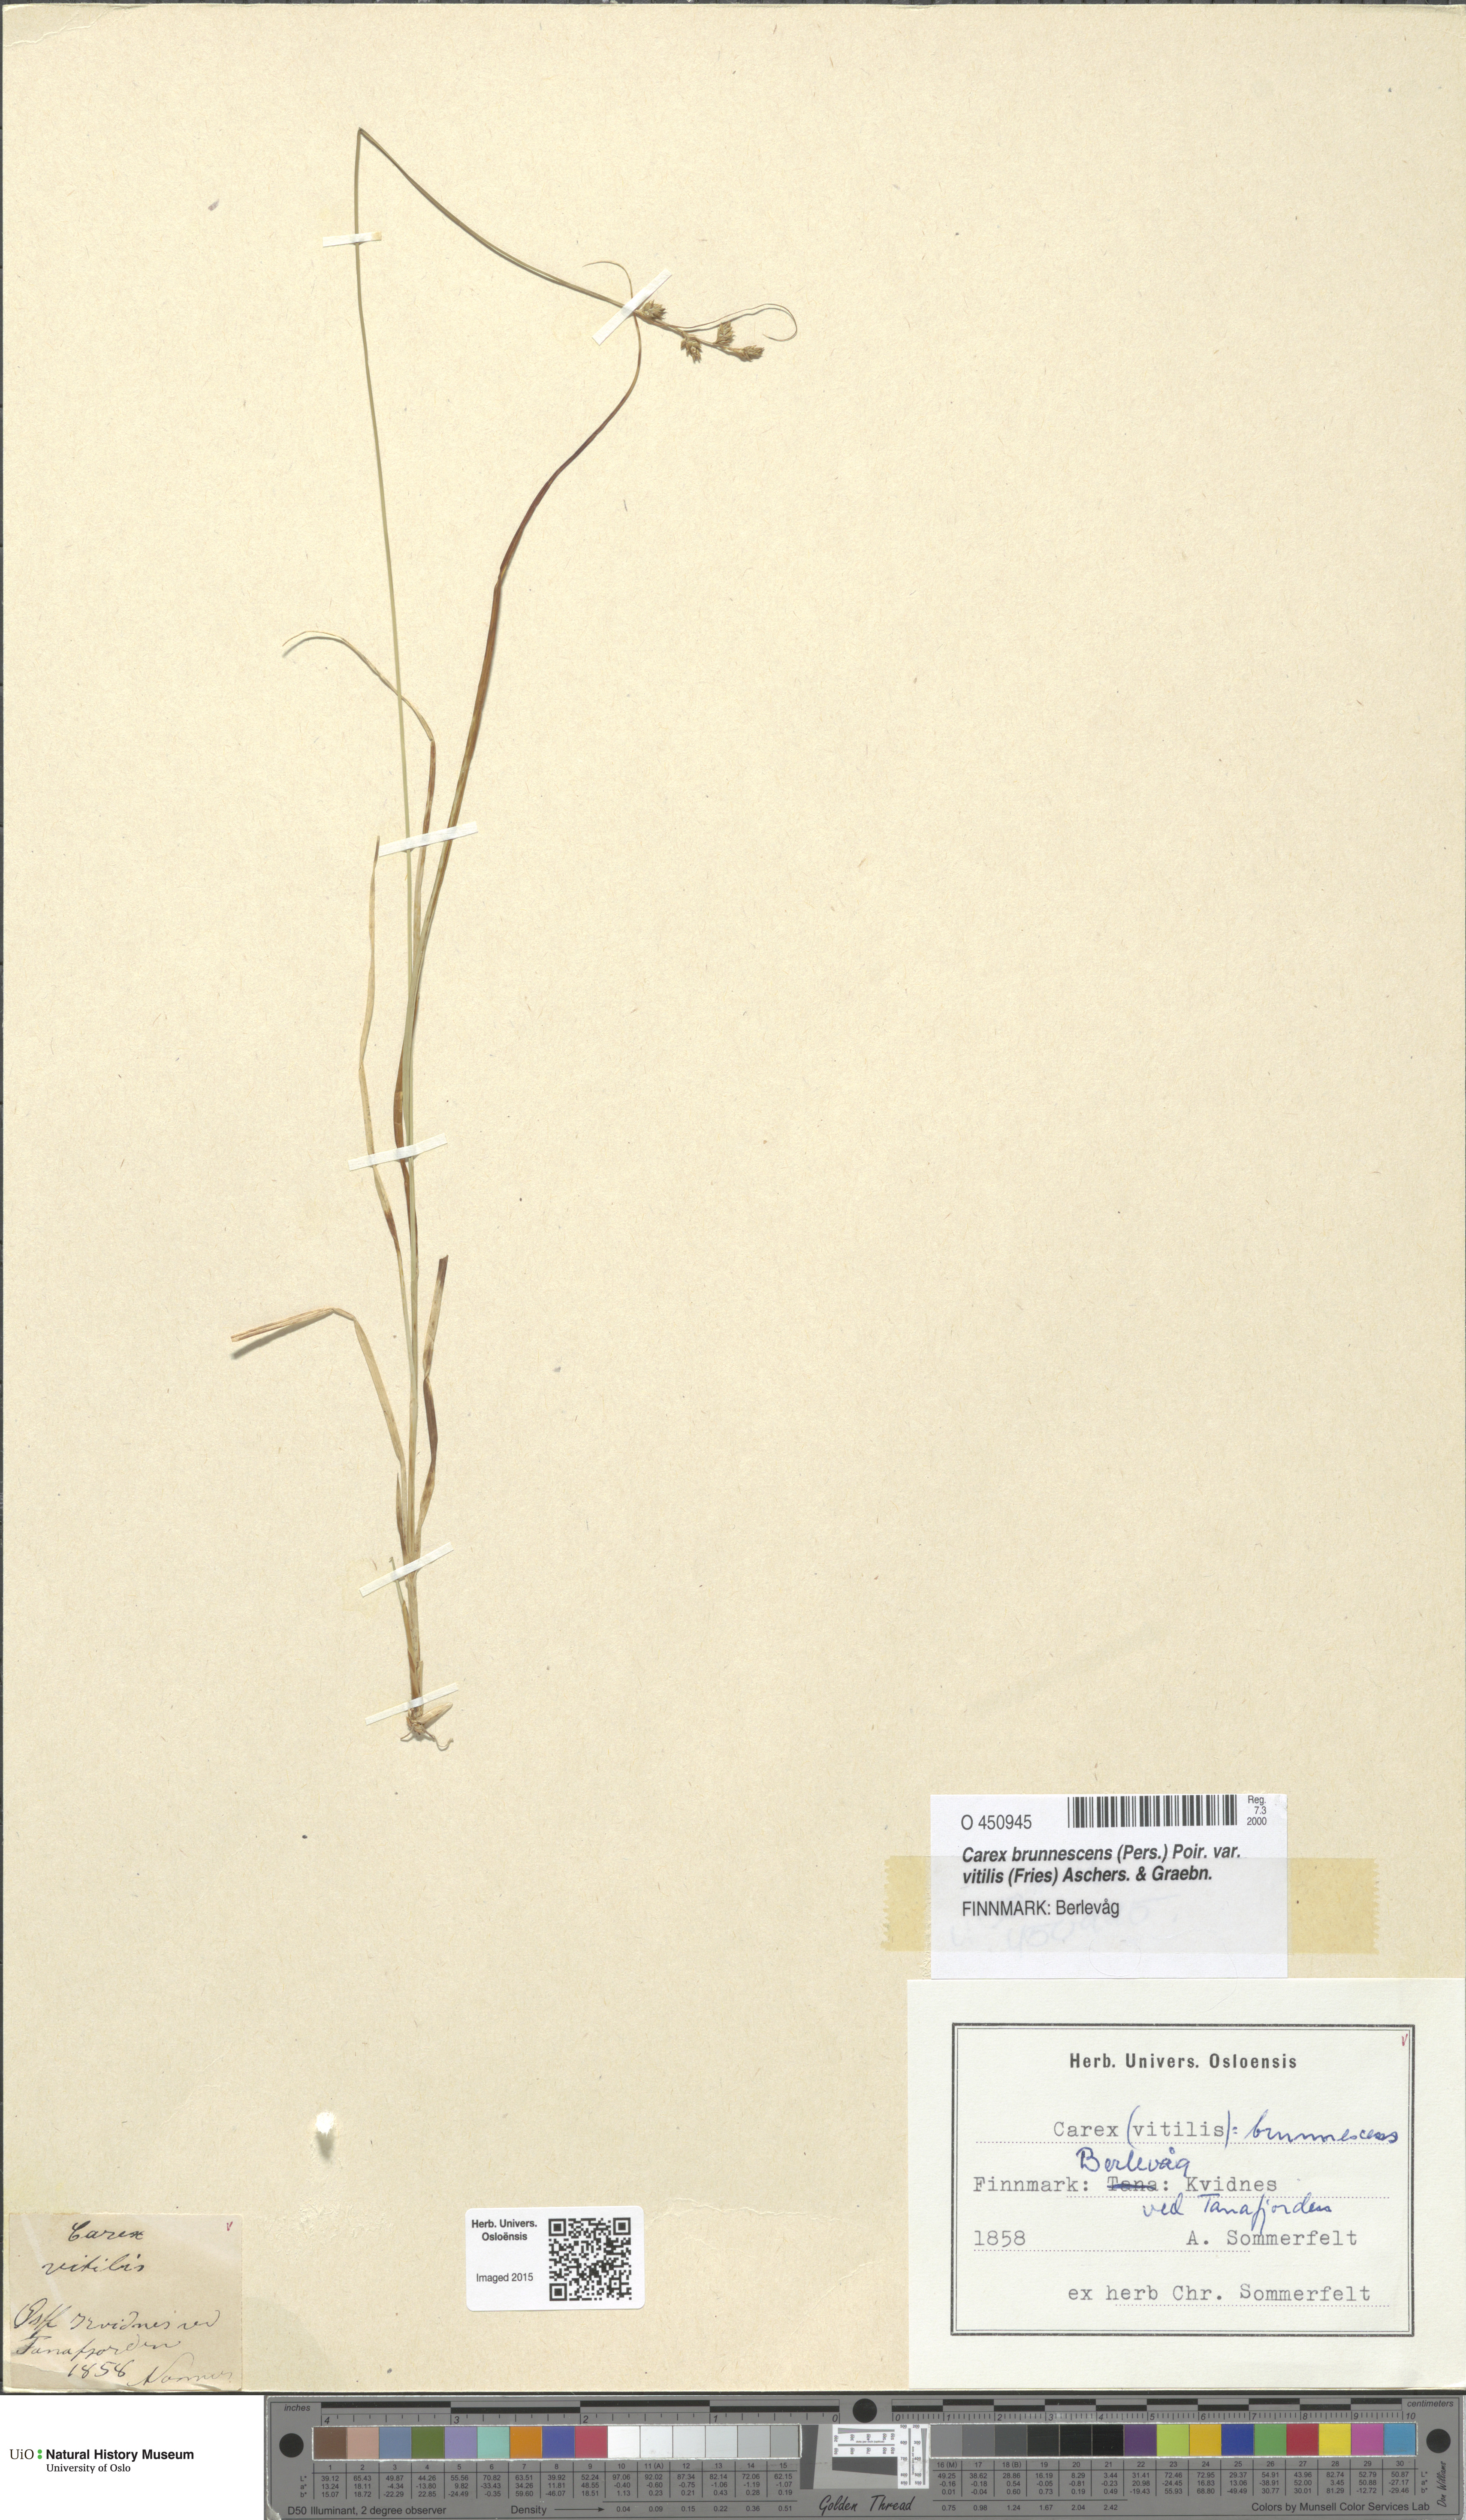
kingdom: Plantae
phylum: Tracheophyta
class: Liliopsida
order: Poales
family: Cyperaceae
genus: Carex
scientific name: Carex brunnescens
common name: Brown sedge
